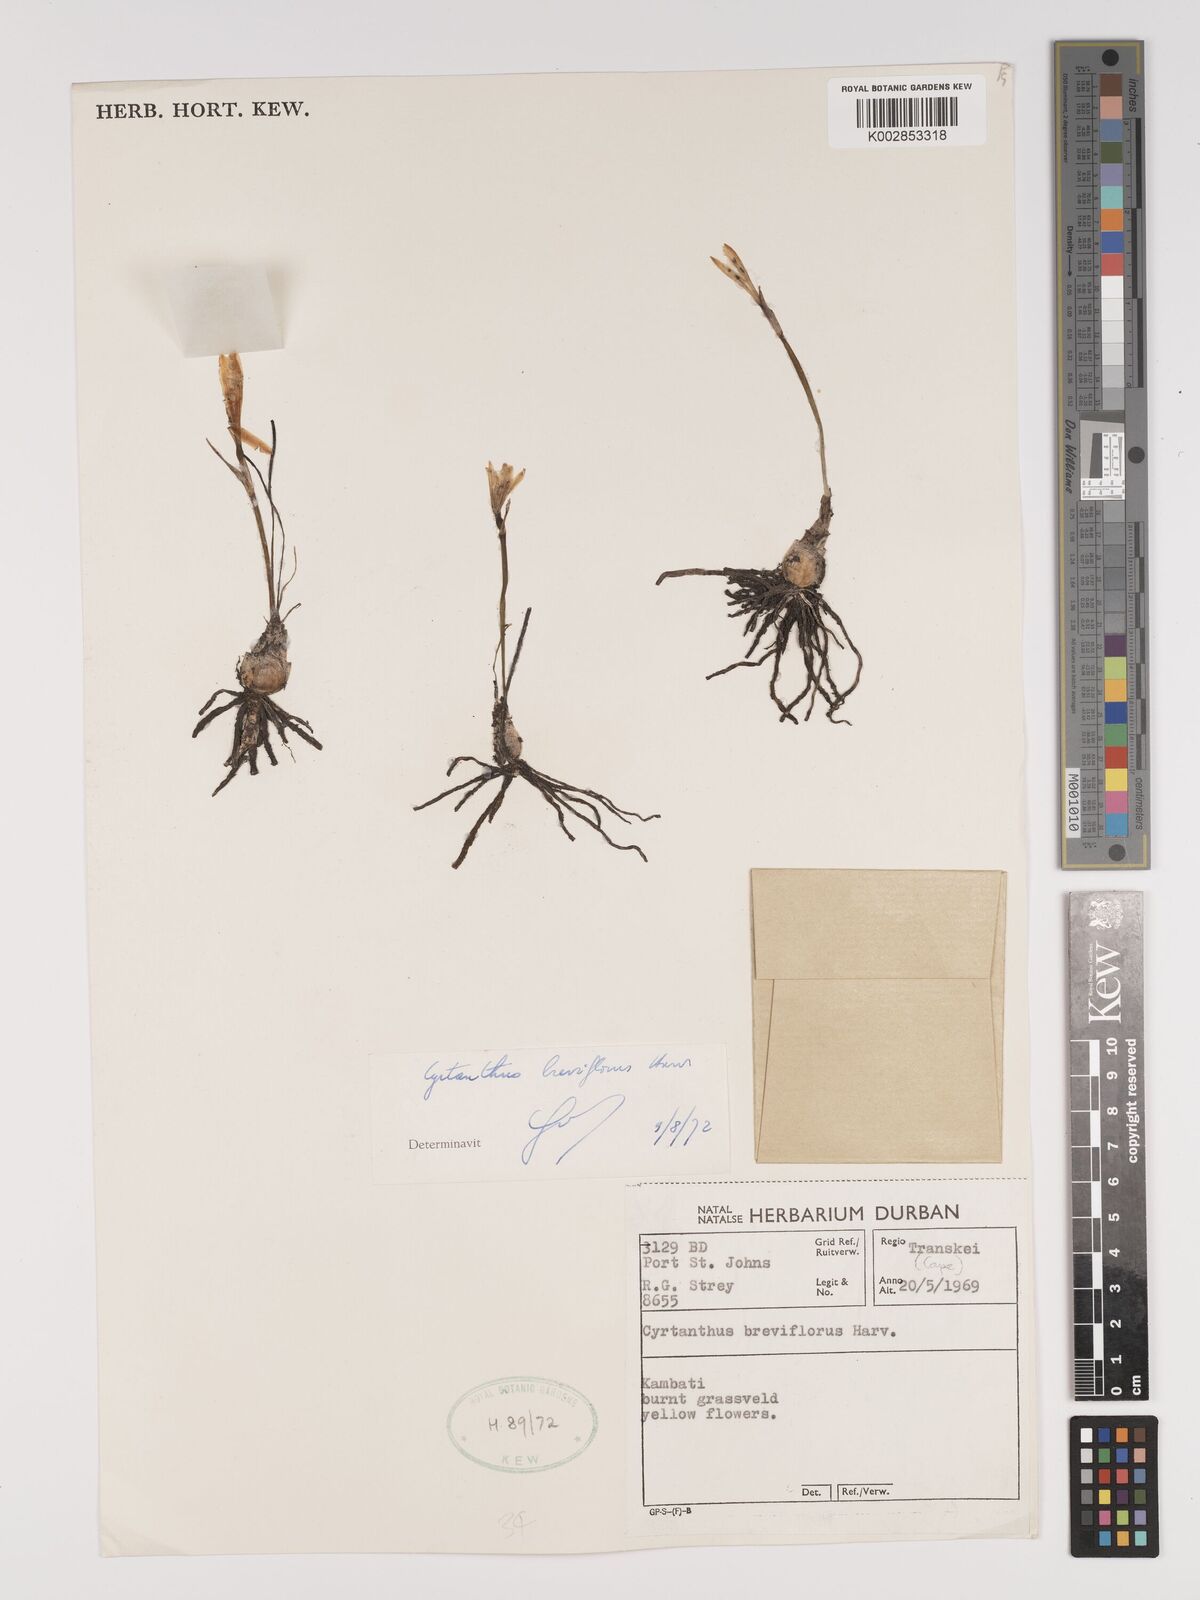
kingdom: Plantae
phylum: Tracheophyta
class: Liliopsida
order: Asparagales
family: Amaryllidaceae
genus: Cyrtanthus
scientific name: Cyrtanthus breviflorus
